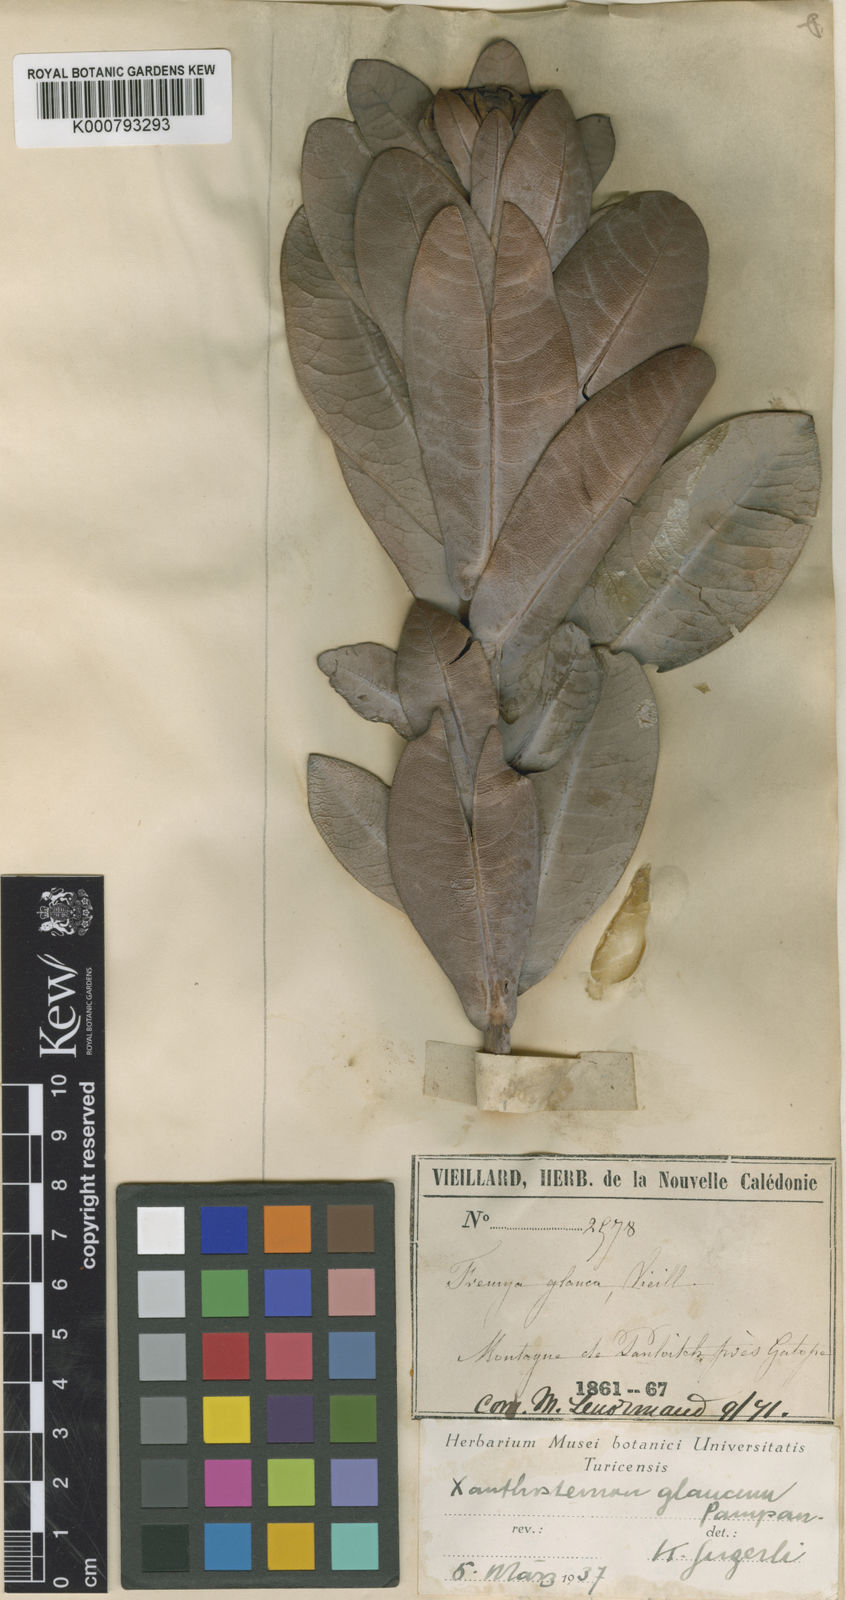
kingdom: Plantae
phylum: Tracheophyta
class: Magnoliopsida
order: Myrtales
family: Myrtaceae
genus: Xanthostemon
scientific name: Xanthostemon glaucus
